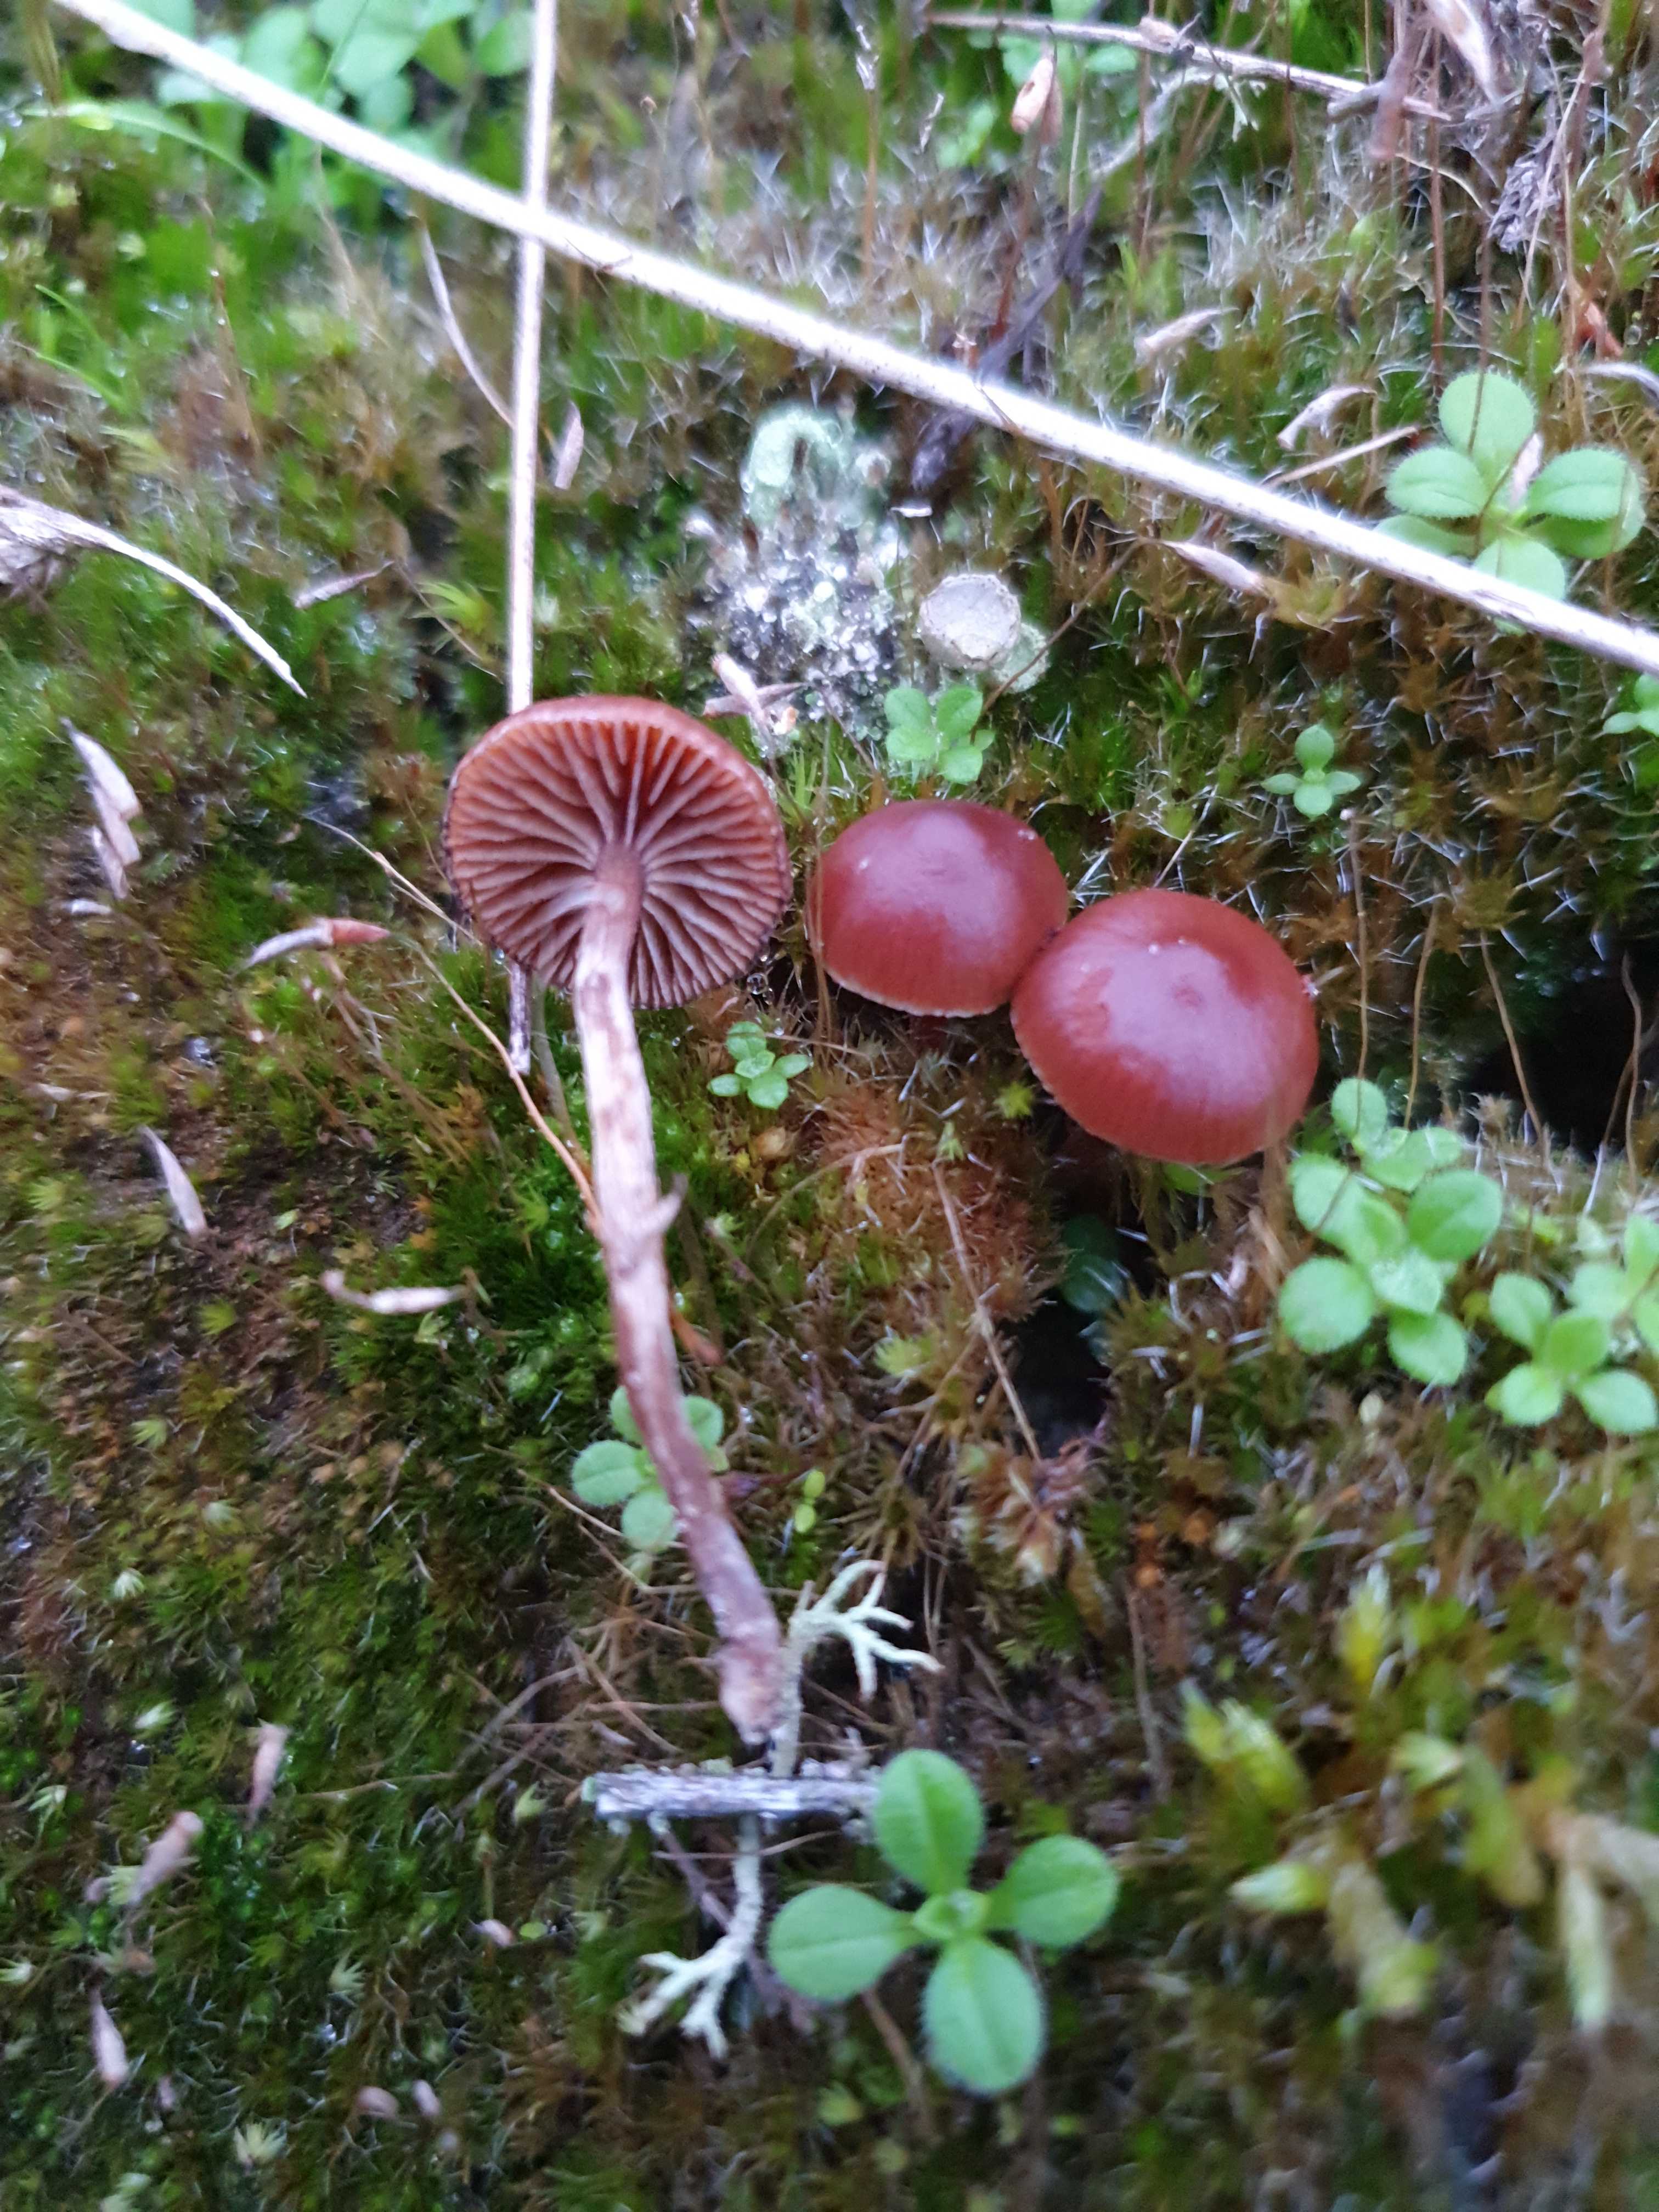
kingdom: Fungi
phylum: Basidiomycota
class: Agaricomycetes
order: Agaricales
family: Strophariaceae
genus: Deconica
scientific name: Deconica montana
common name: rødbrun stråhat
